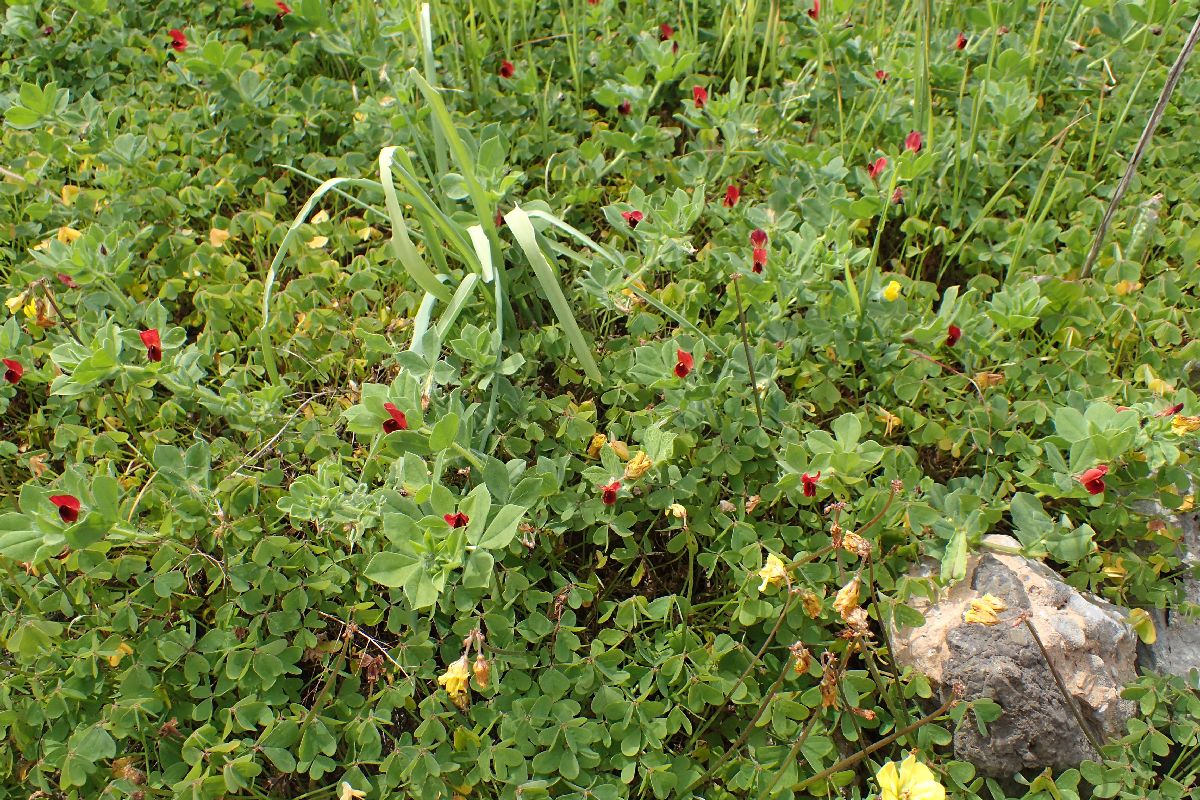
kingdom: Plantae
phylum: Tracheophyta
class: Magnoliopsida
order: Fabales
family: Fabaceae
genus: Lotus
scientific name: Lotus tetragonolobus
